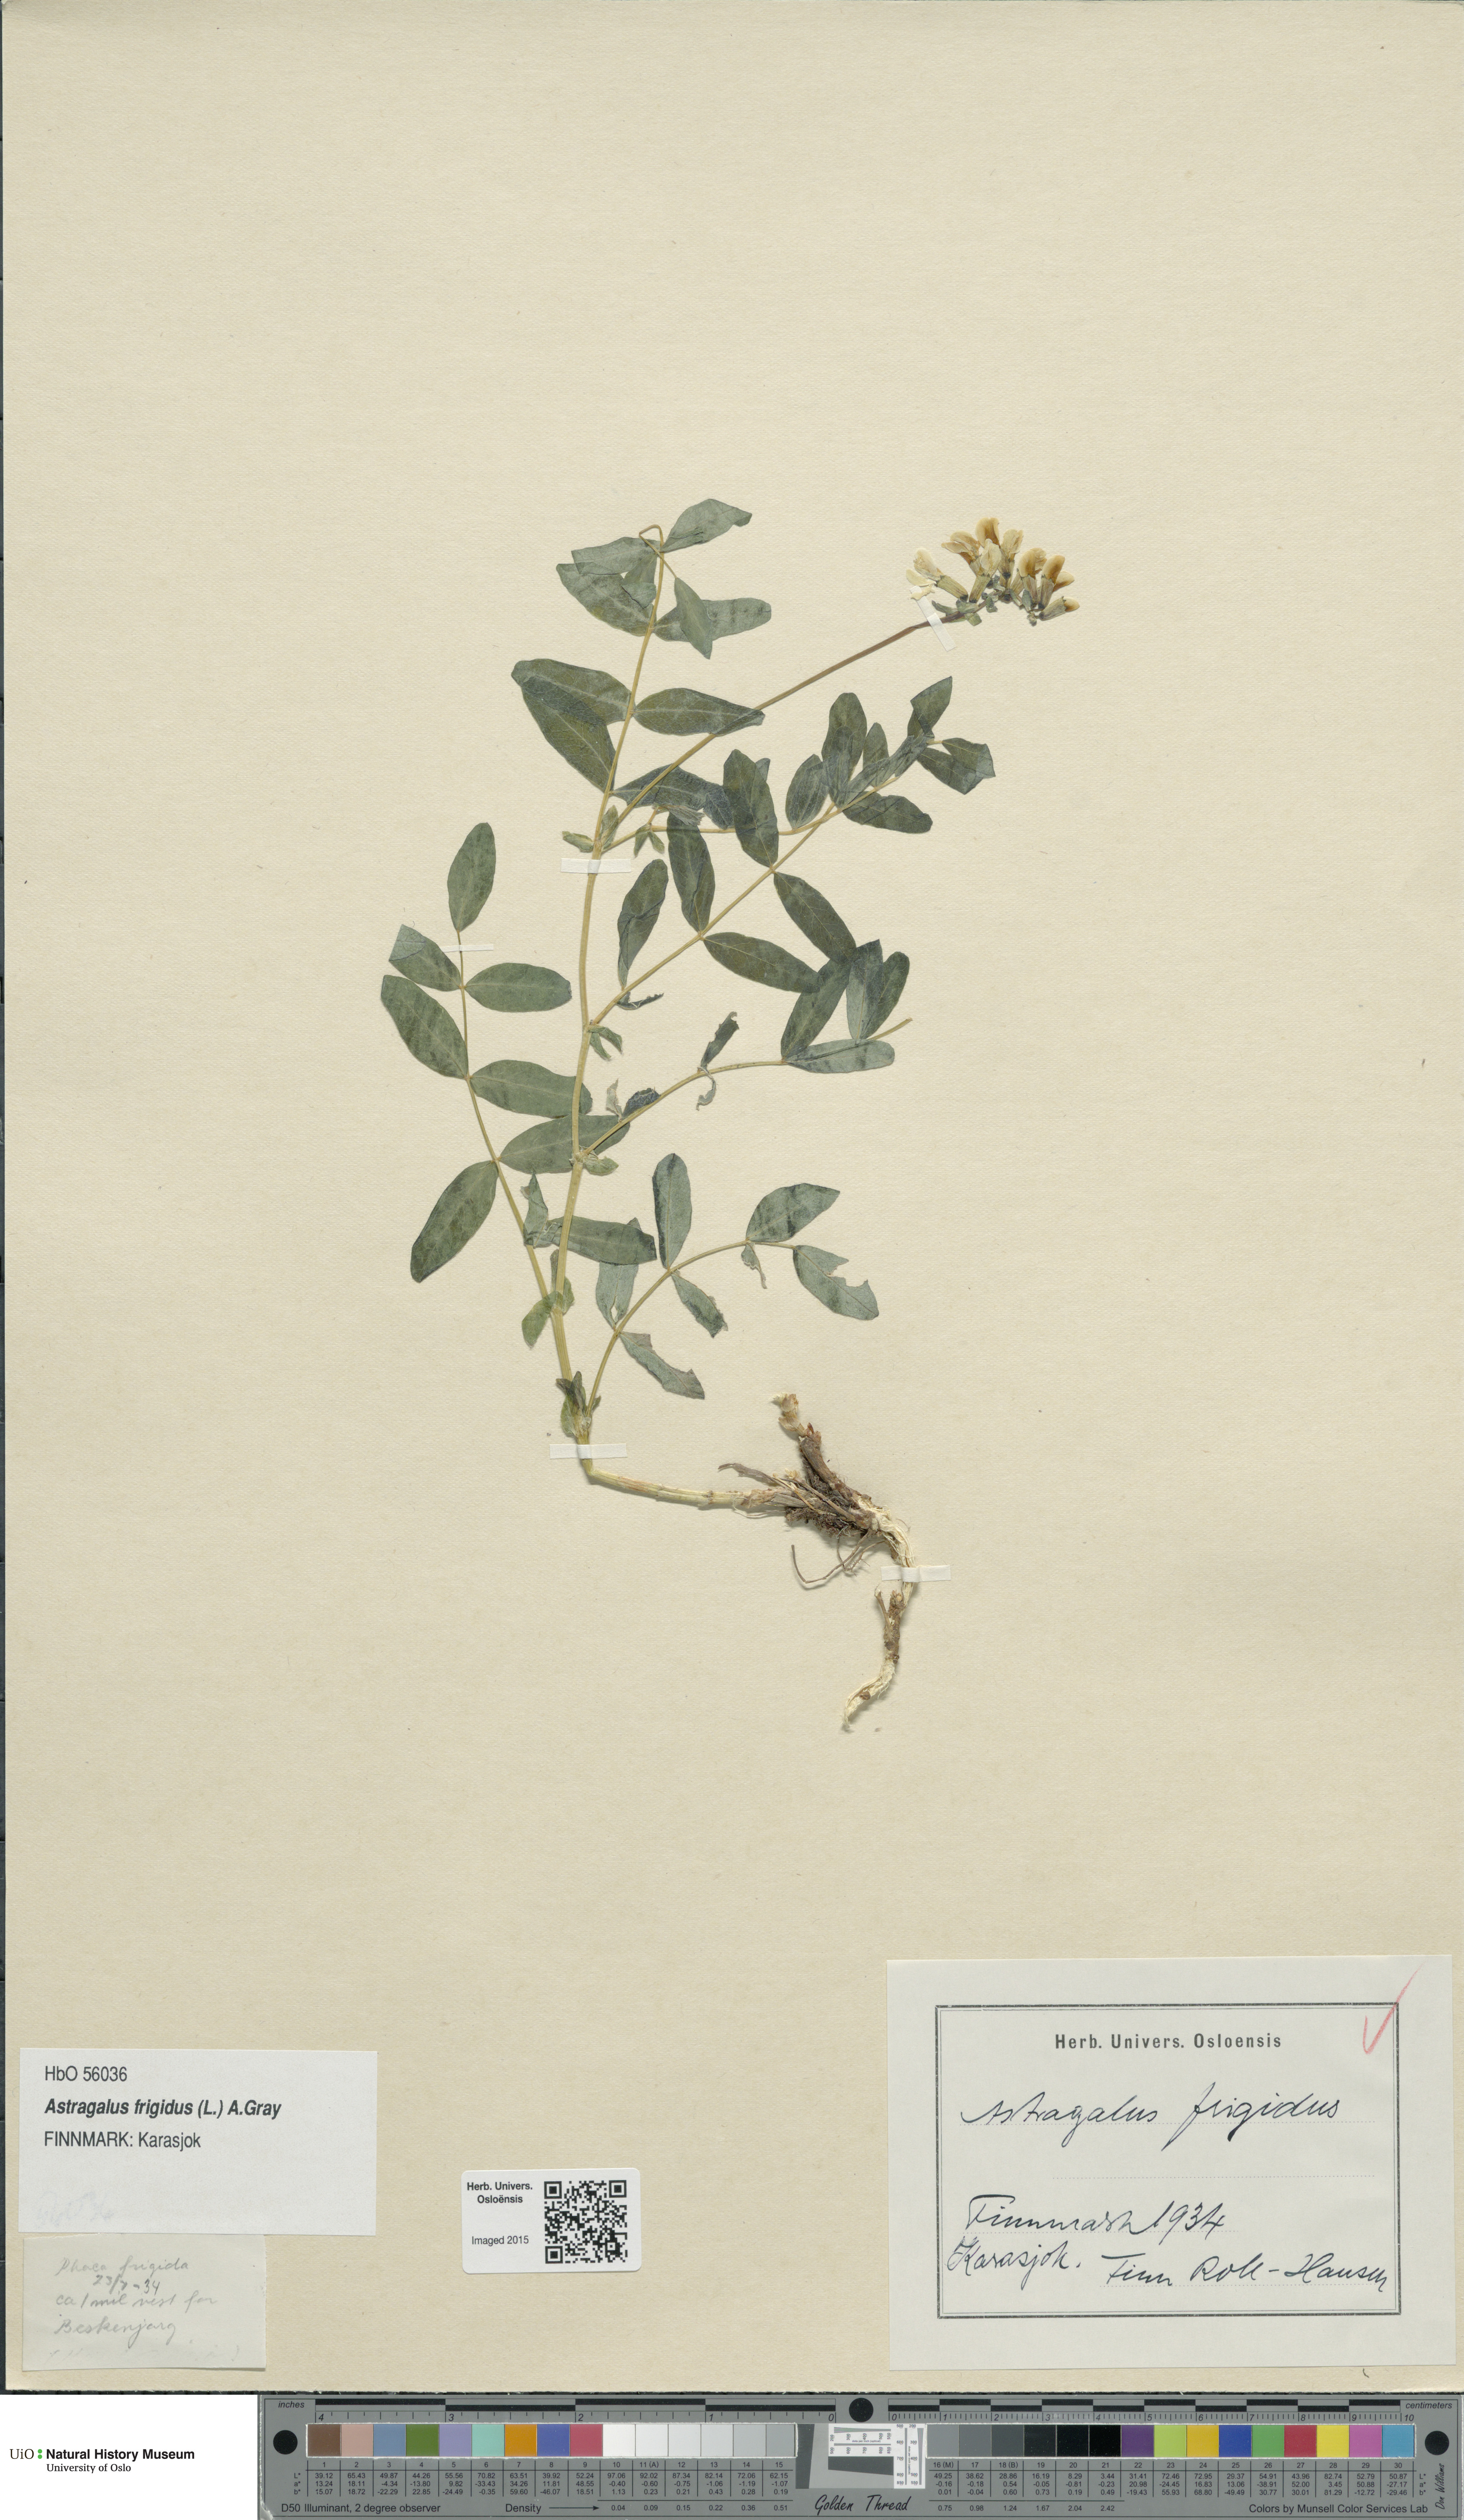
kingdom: Plantae
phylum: Tracheophyta
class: Magnoliopsida
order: Fabales
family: Fabaceae
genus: Astragalus
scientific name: Astragalus frigidus
